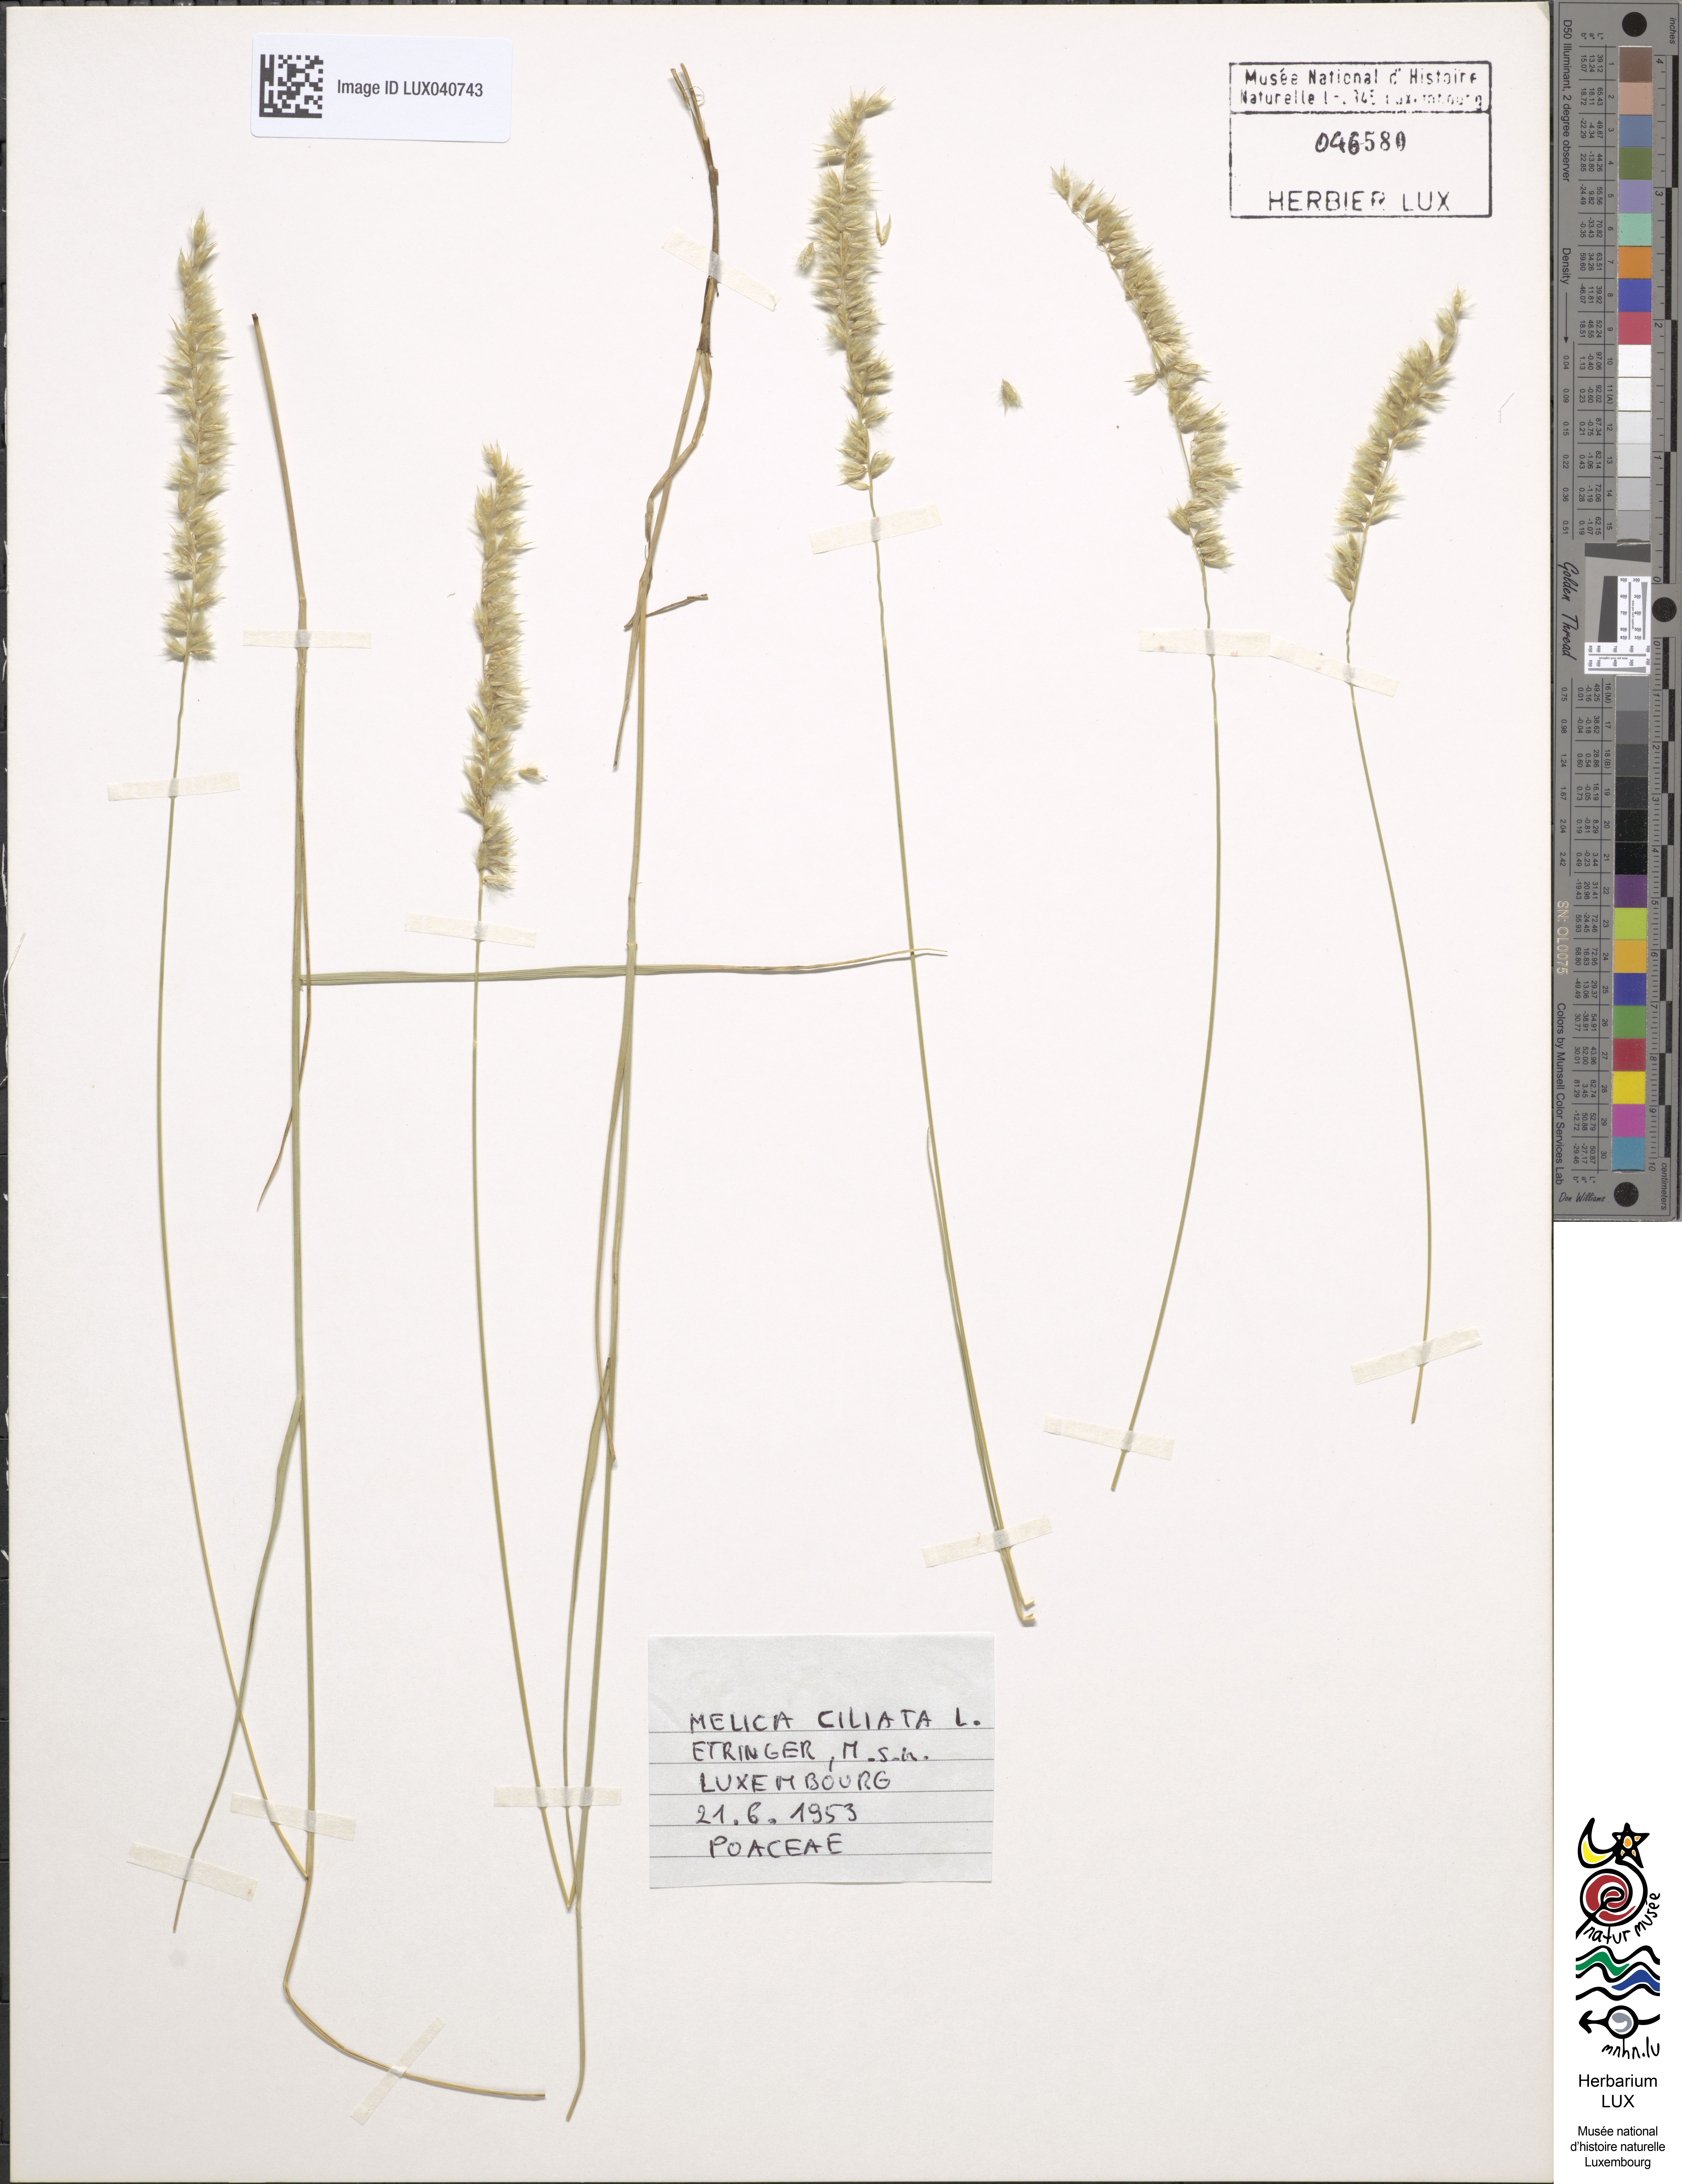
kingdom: Plantae
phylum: Tracheophyta
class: Liliopsida
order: Poales
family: Poaceae
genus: Melica
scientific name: Melica ciliata
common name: Hairy melicgrass
